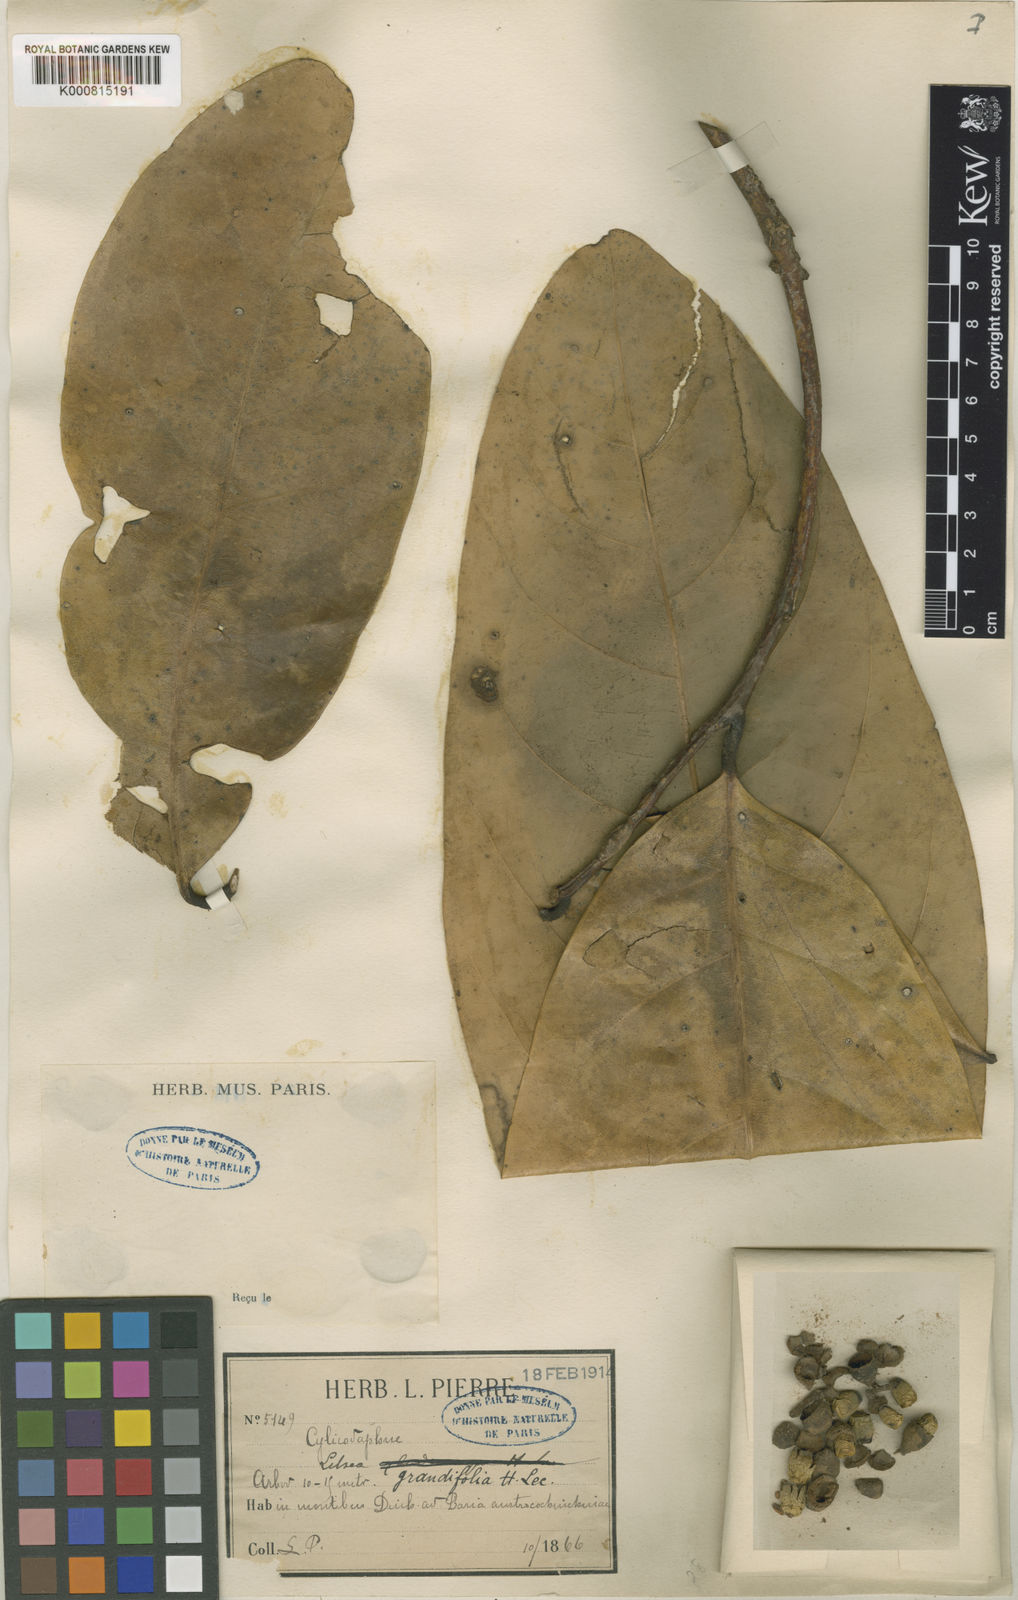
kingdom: Plantae
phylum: Tracheophyta
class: Magnoliopsida
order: Laurales
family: Lauraceae
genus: Litsea
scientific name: Litsea grandifolia
